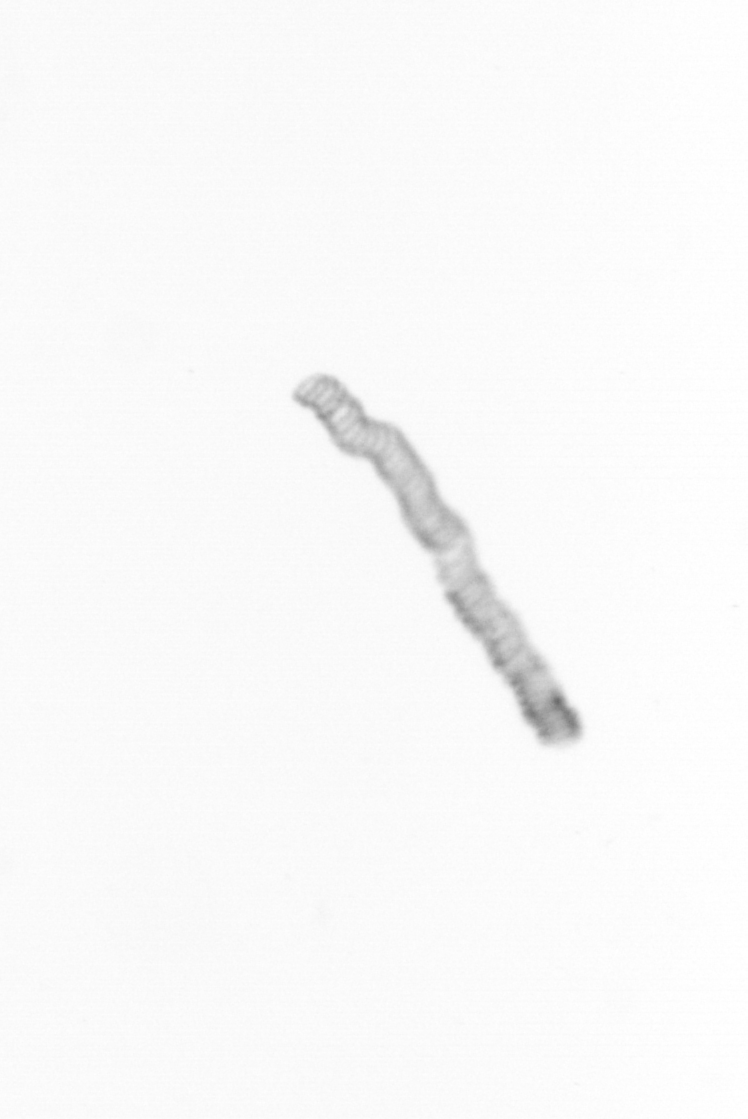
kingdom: Chromista
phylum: Ochrophyta
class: Bacillariophyceae
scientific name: Bacillariophyceae
